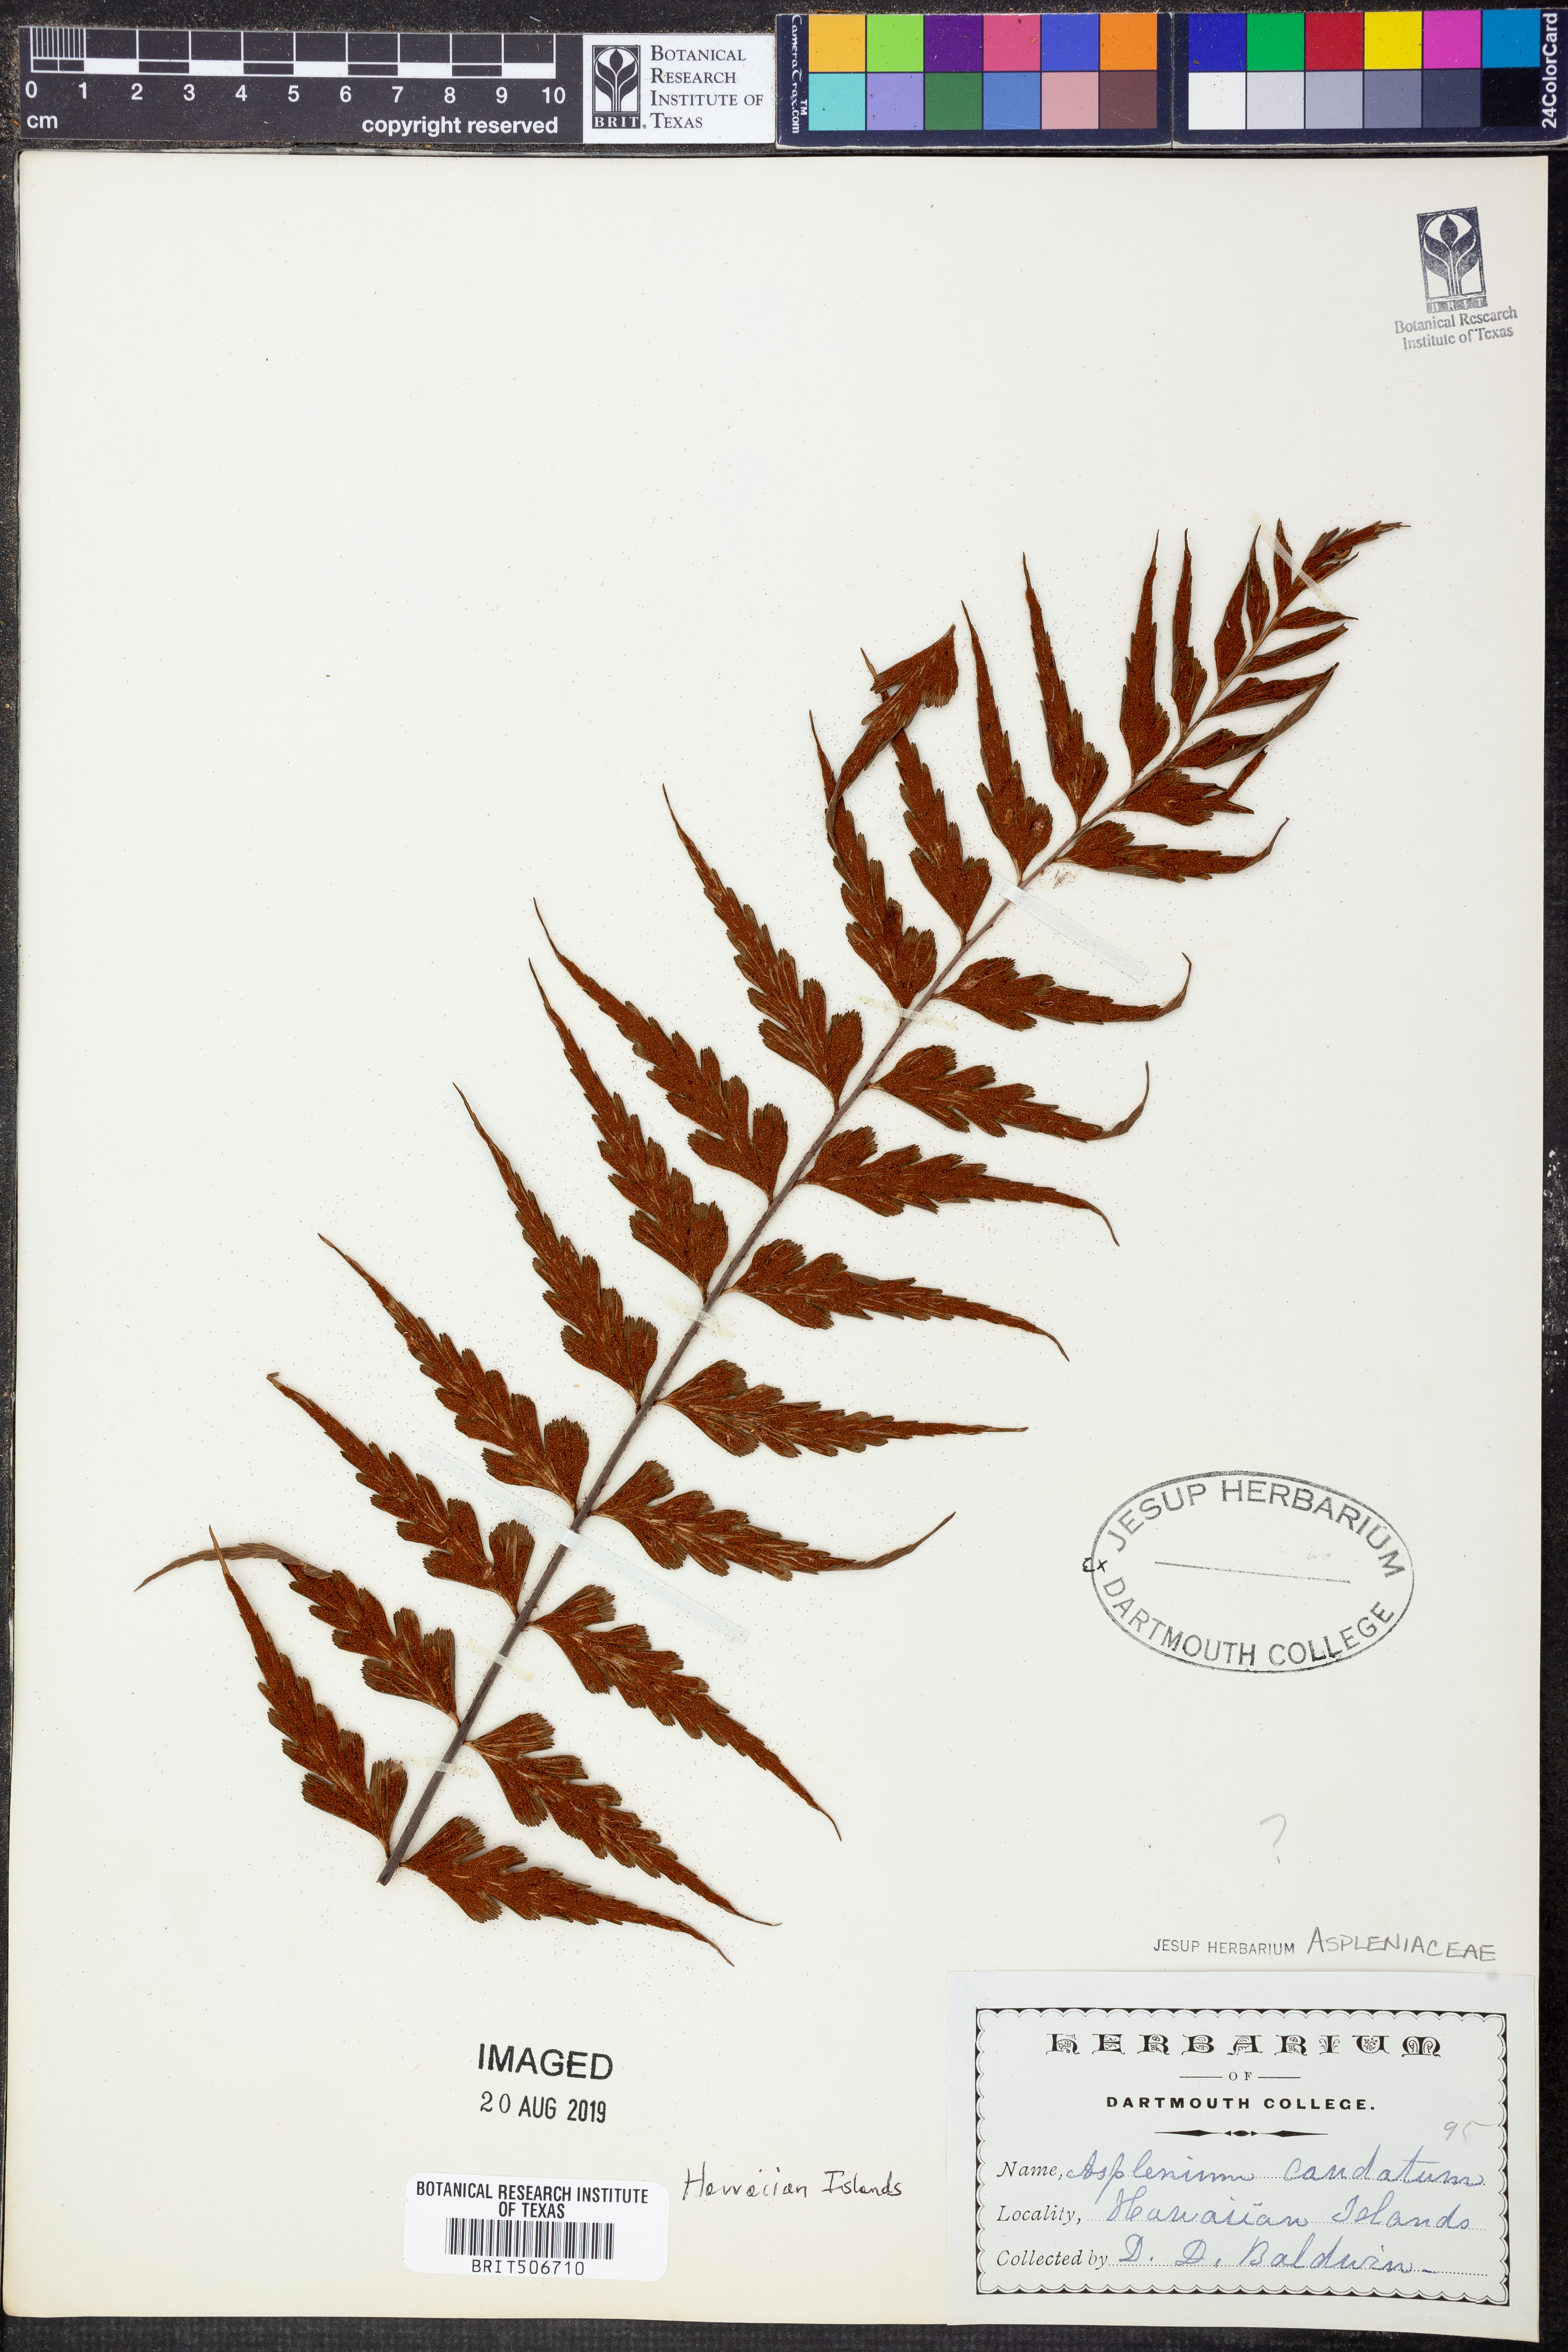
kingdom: Plantae
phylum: Tracheophyta
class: Polypodiopsida
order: Polypodiales
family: Aspleniaceae
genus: Asplenium
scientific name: Asplenium caudatum
